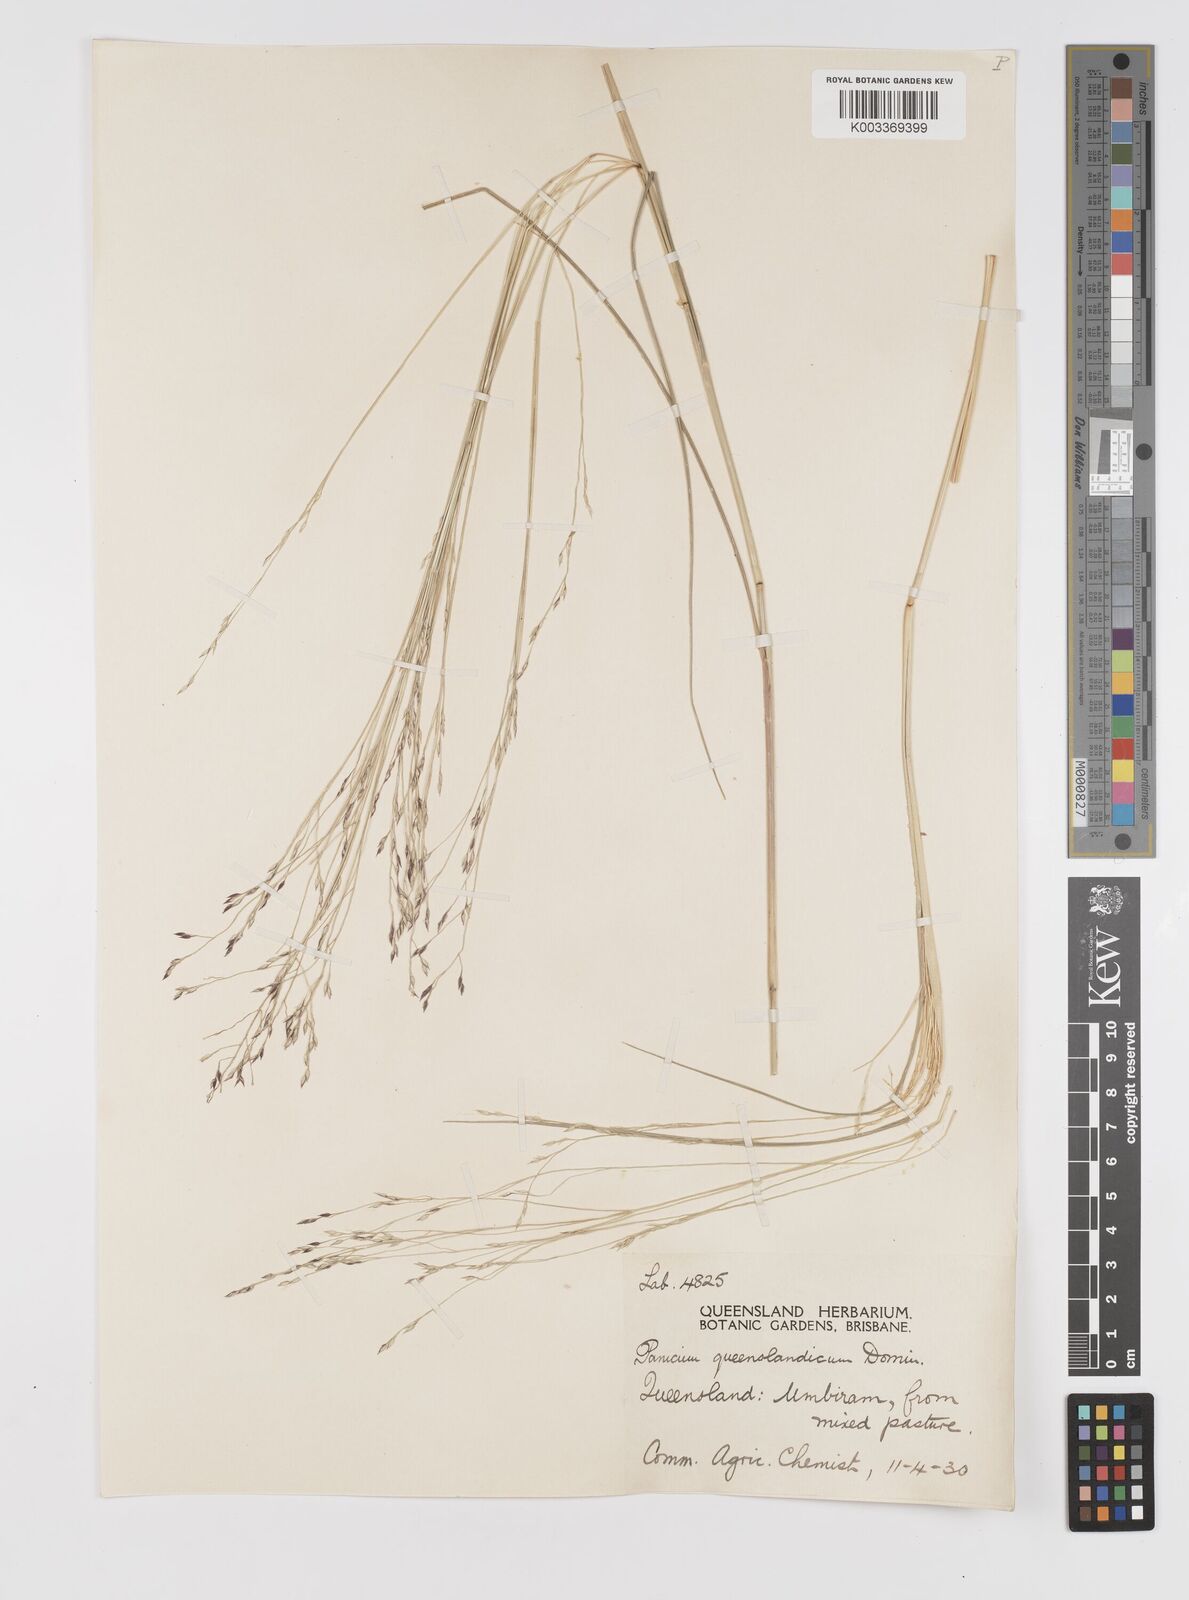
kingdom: Plantae
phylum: Tracheophyta
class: Liliopsida
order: Poales
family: Poaceae
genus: Panicum
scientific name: Panicum queenslandicum
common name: Yabila grass
